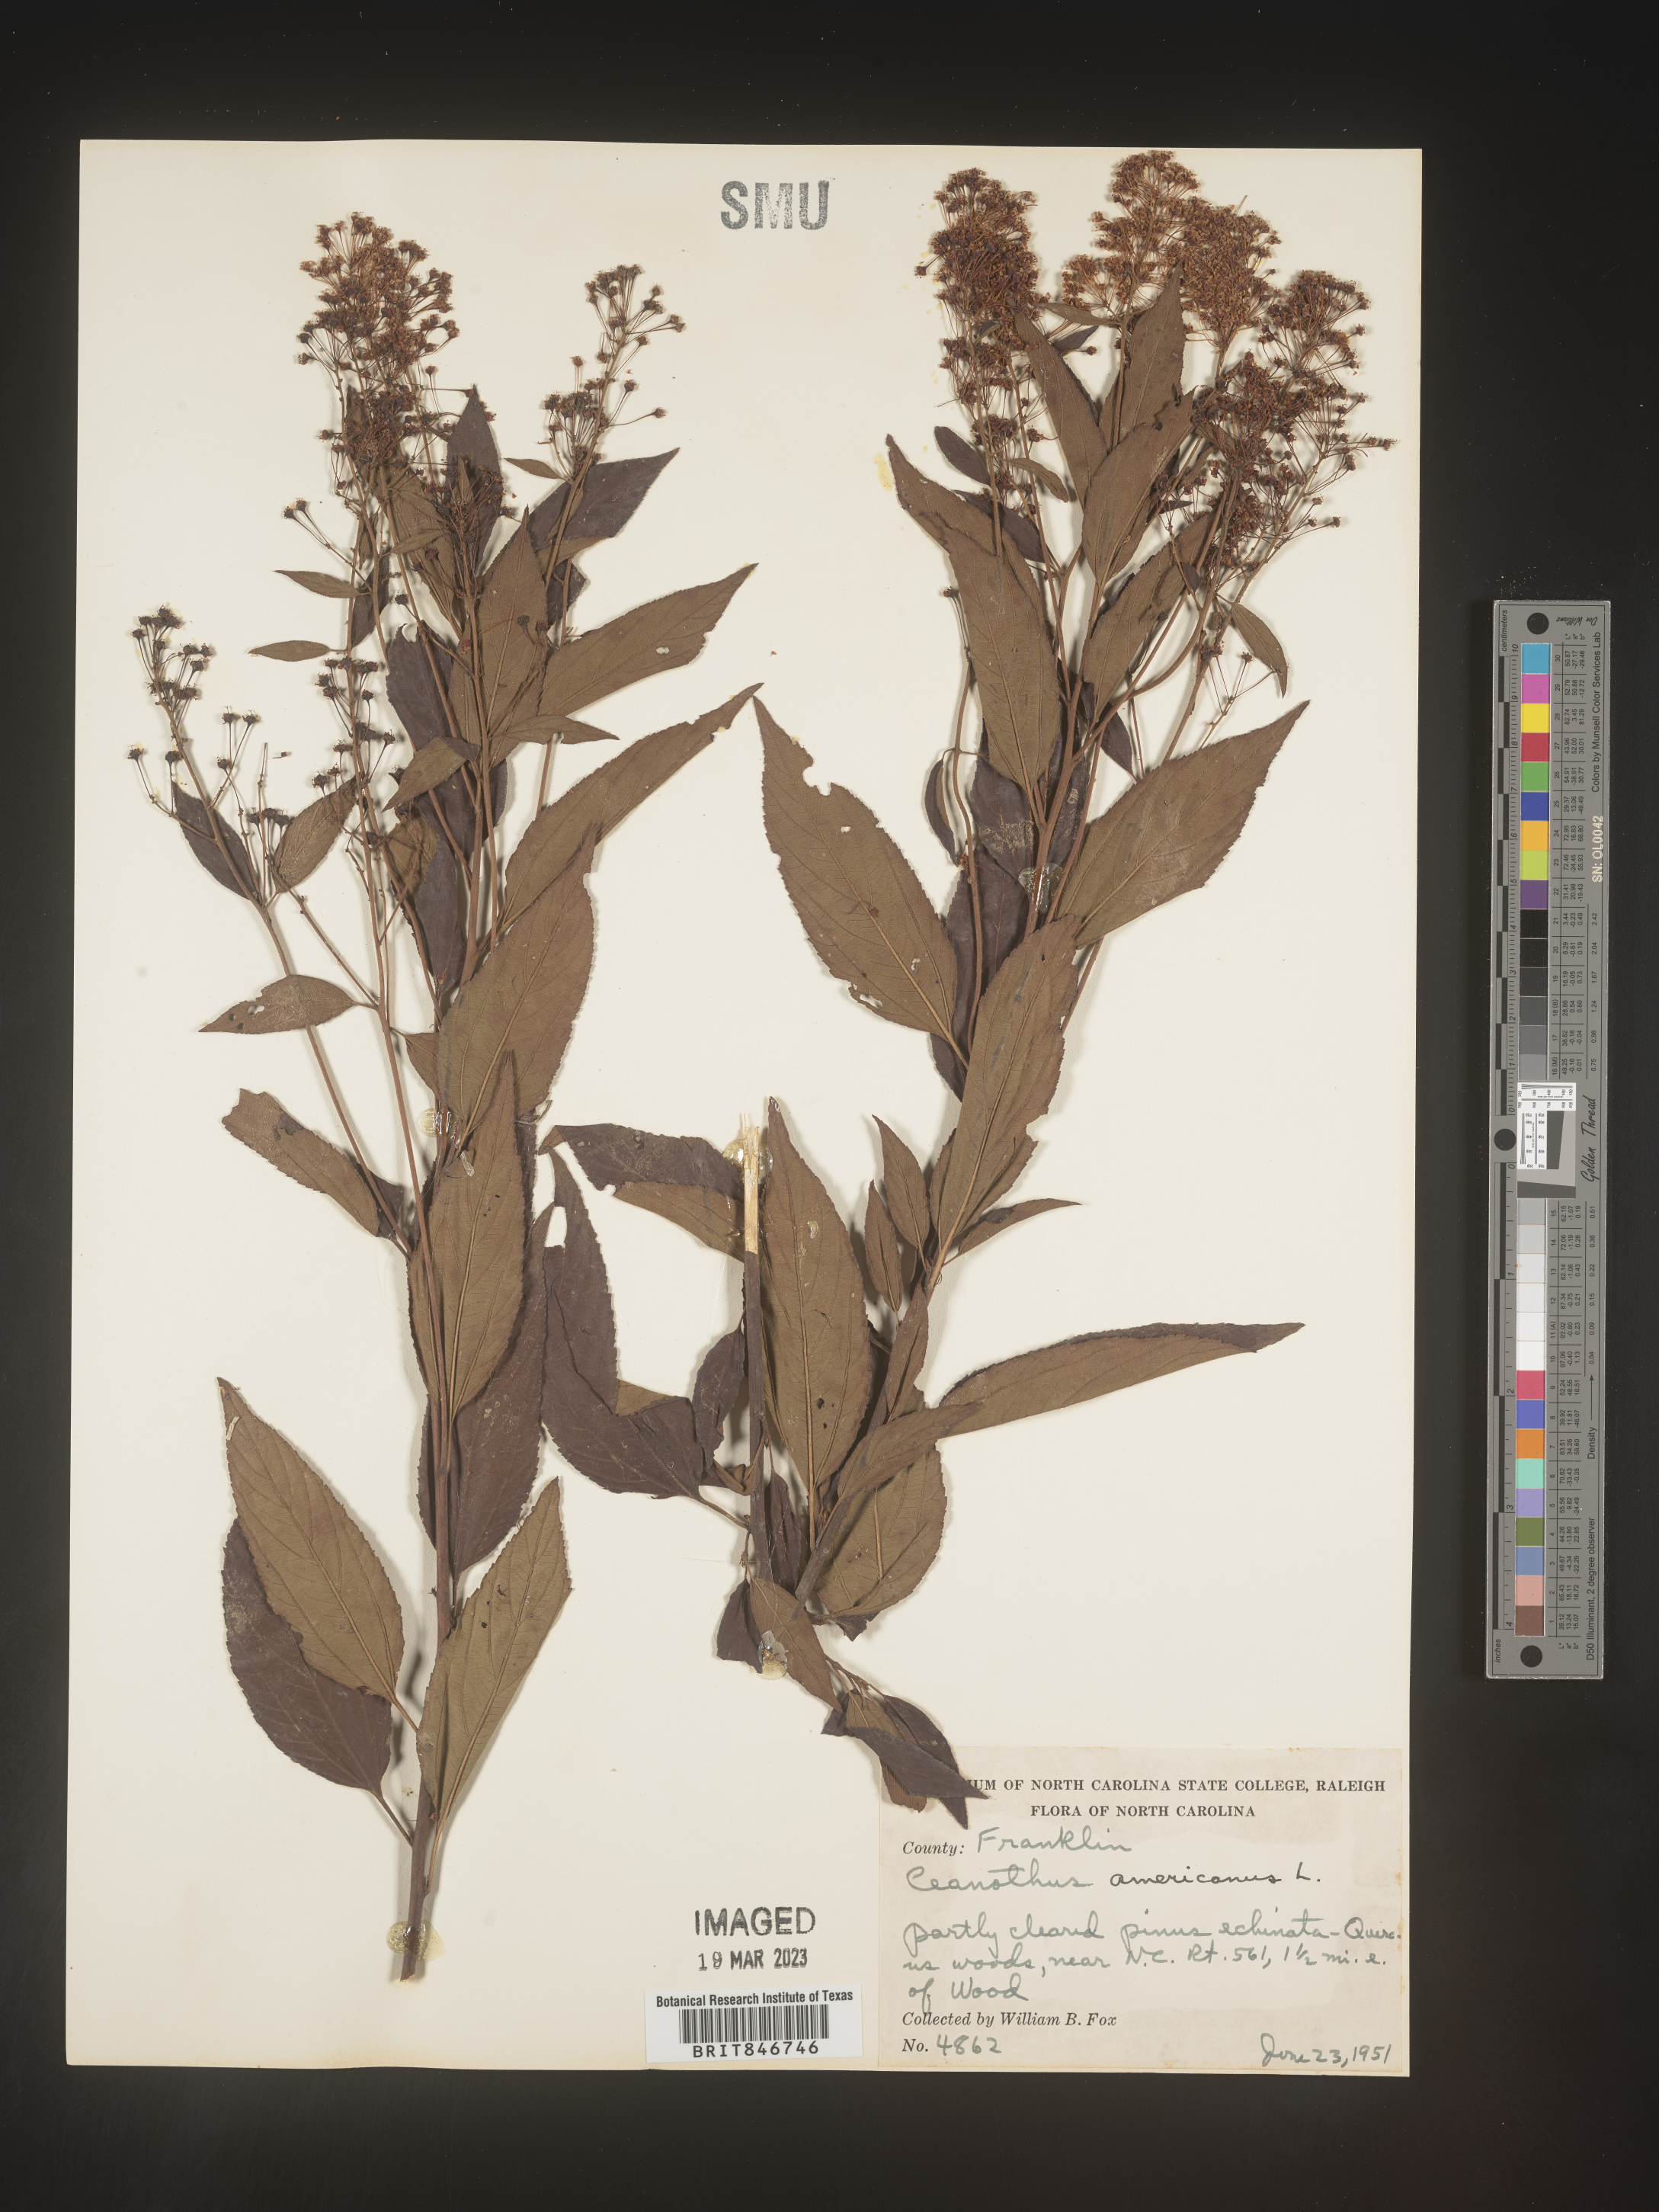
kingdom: Plantae
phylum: Tracheophyta
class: Magnoliopsida
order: Rosales
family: Rhamnaceae
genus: Ceanothus
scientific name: Ceanothus americanus
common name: Redroot
